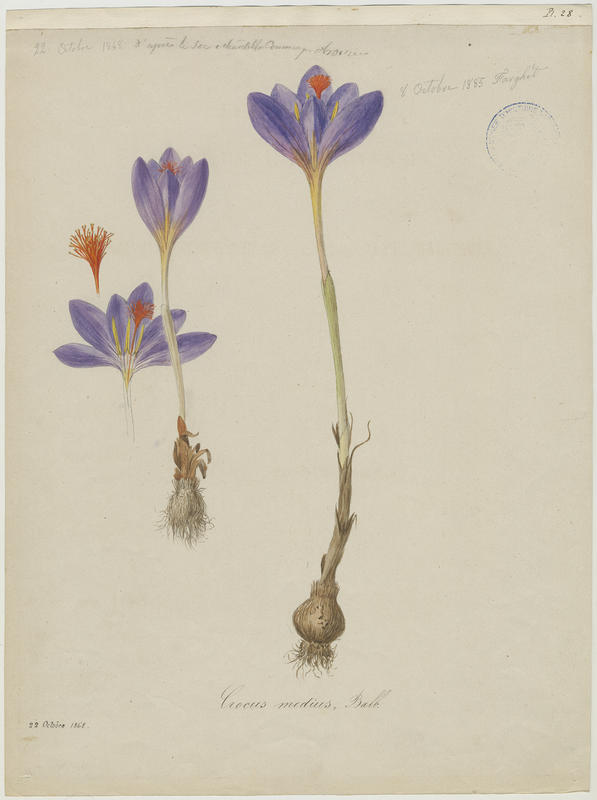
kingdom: Plantae
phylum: Tracheophyta
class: Liliopsida
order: Asparagales
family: Iridaceae
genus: Crocus
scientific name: Crocus ligusticus
